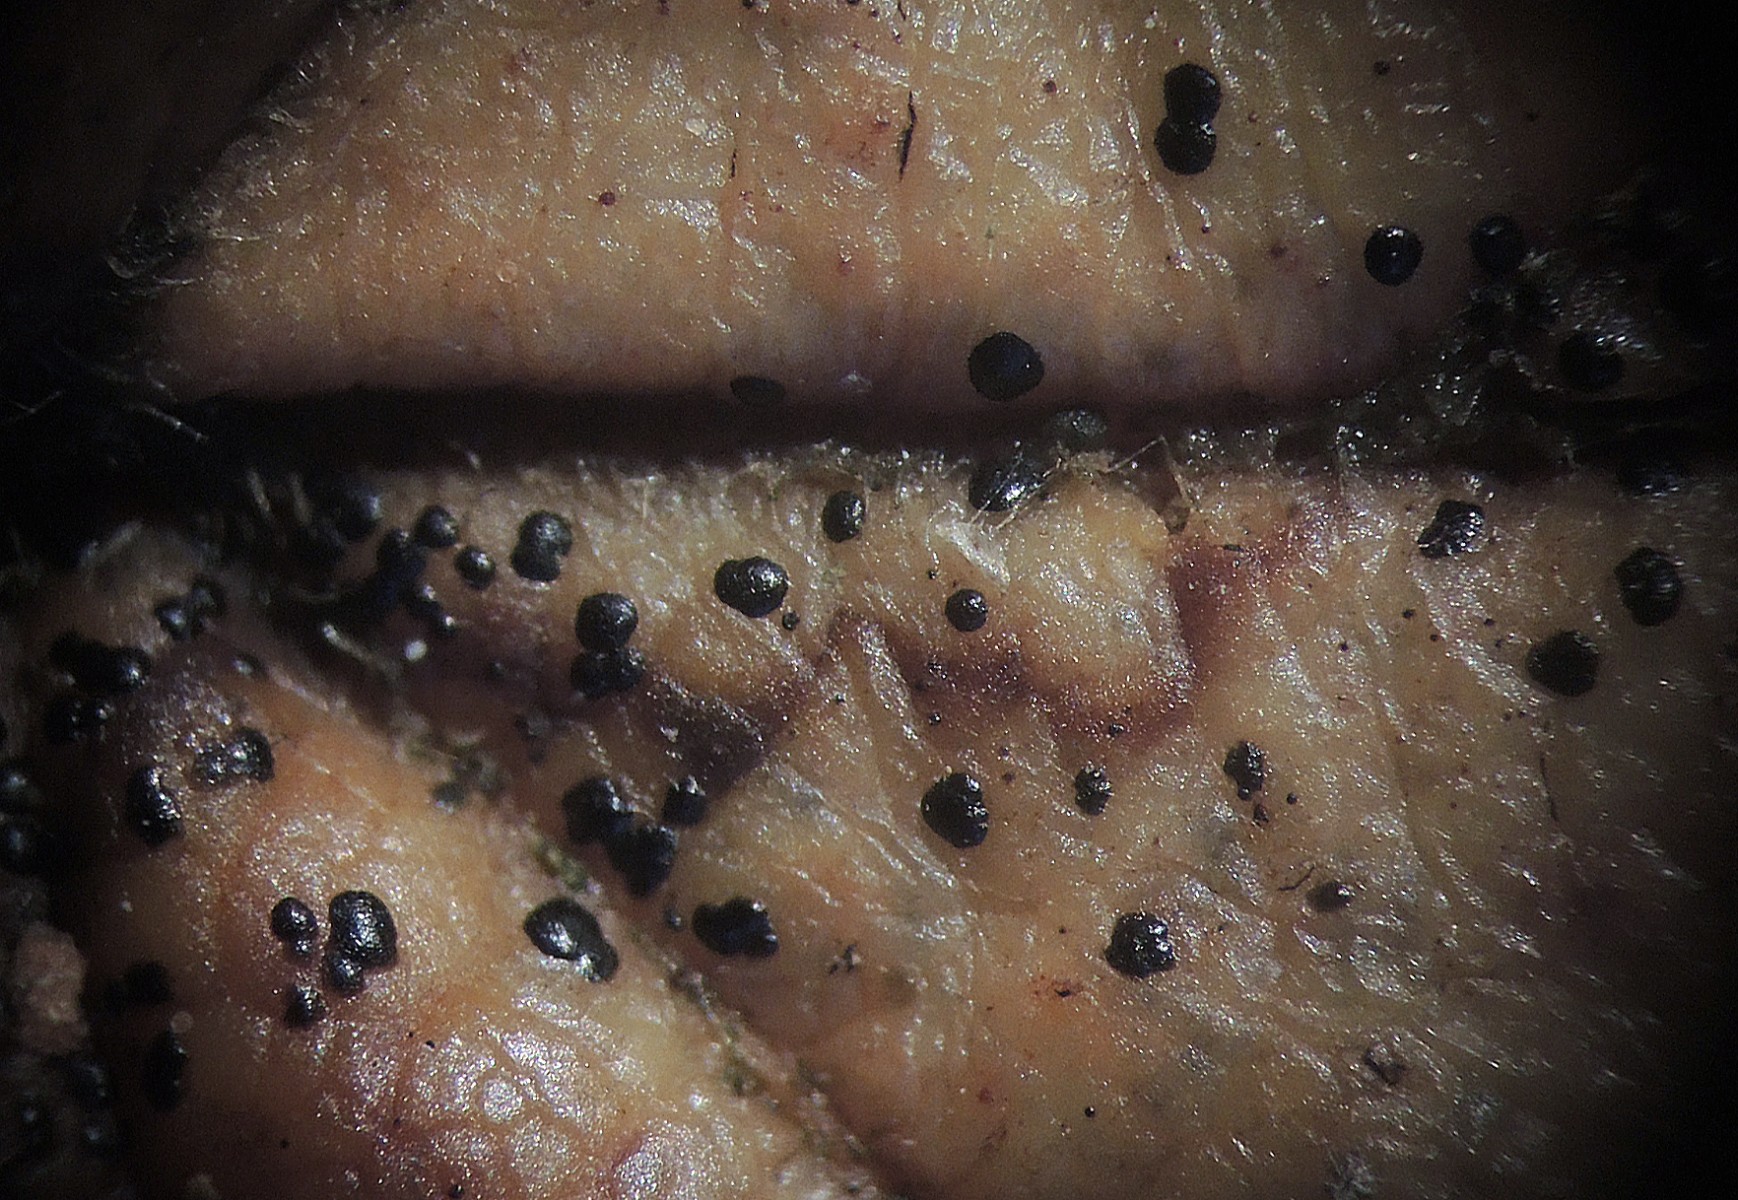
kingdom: Fungi
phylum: Ascomycota
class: Leotiomycetes
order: Rhytismatales
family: Rhytismataceae
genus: Hypoderma
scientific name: Hypoderma rubi
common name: brombær-fureplet
